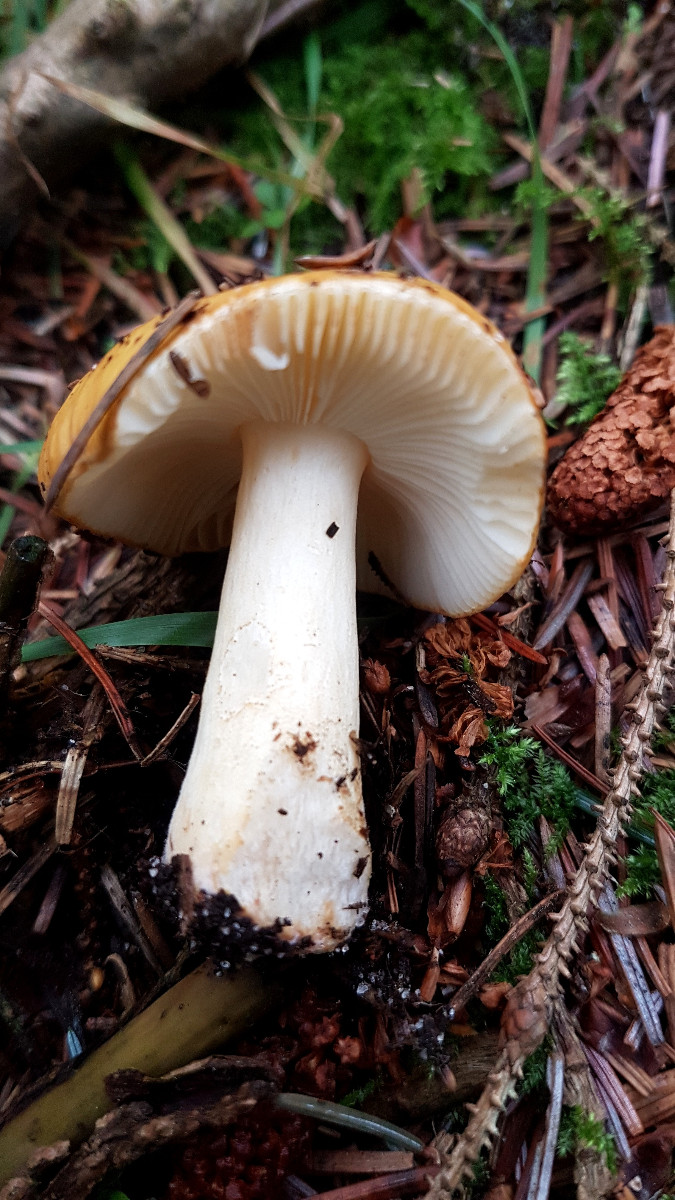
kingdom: Fungi
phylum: Basidiomycota
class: Agaricomycetes
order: Russulales
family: Russulaceae
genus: Russula
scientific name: Russula ochroleuca
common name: okkergul skørhat
